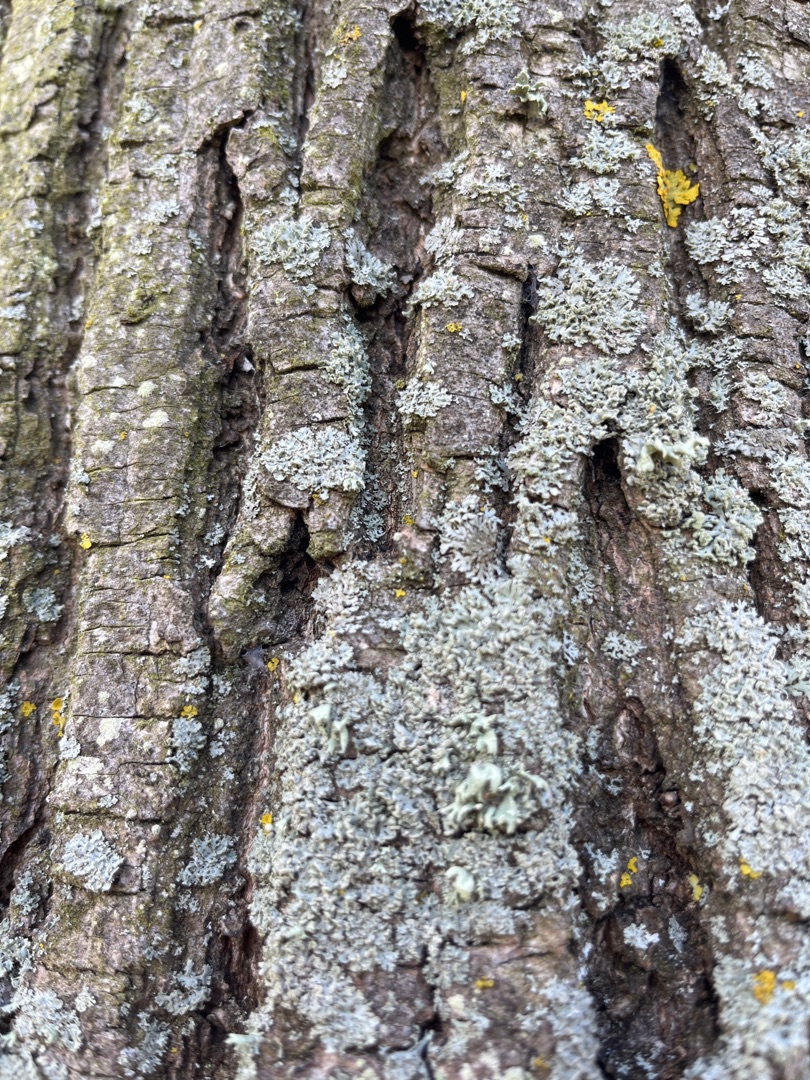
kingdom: Fungi
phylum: Ascomycota
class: Lecanoromycetes
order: Caliciales
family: Physciaceae
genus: Phaeophyscia
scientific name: Phaeophyscia orbicularis
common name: Grågrøn rosetlav
